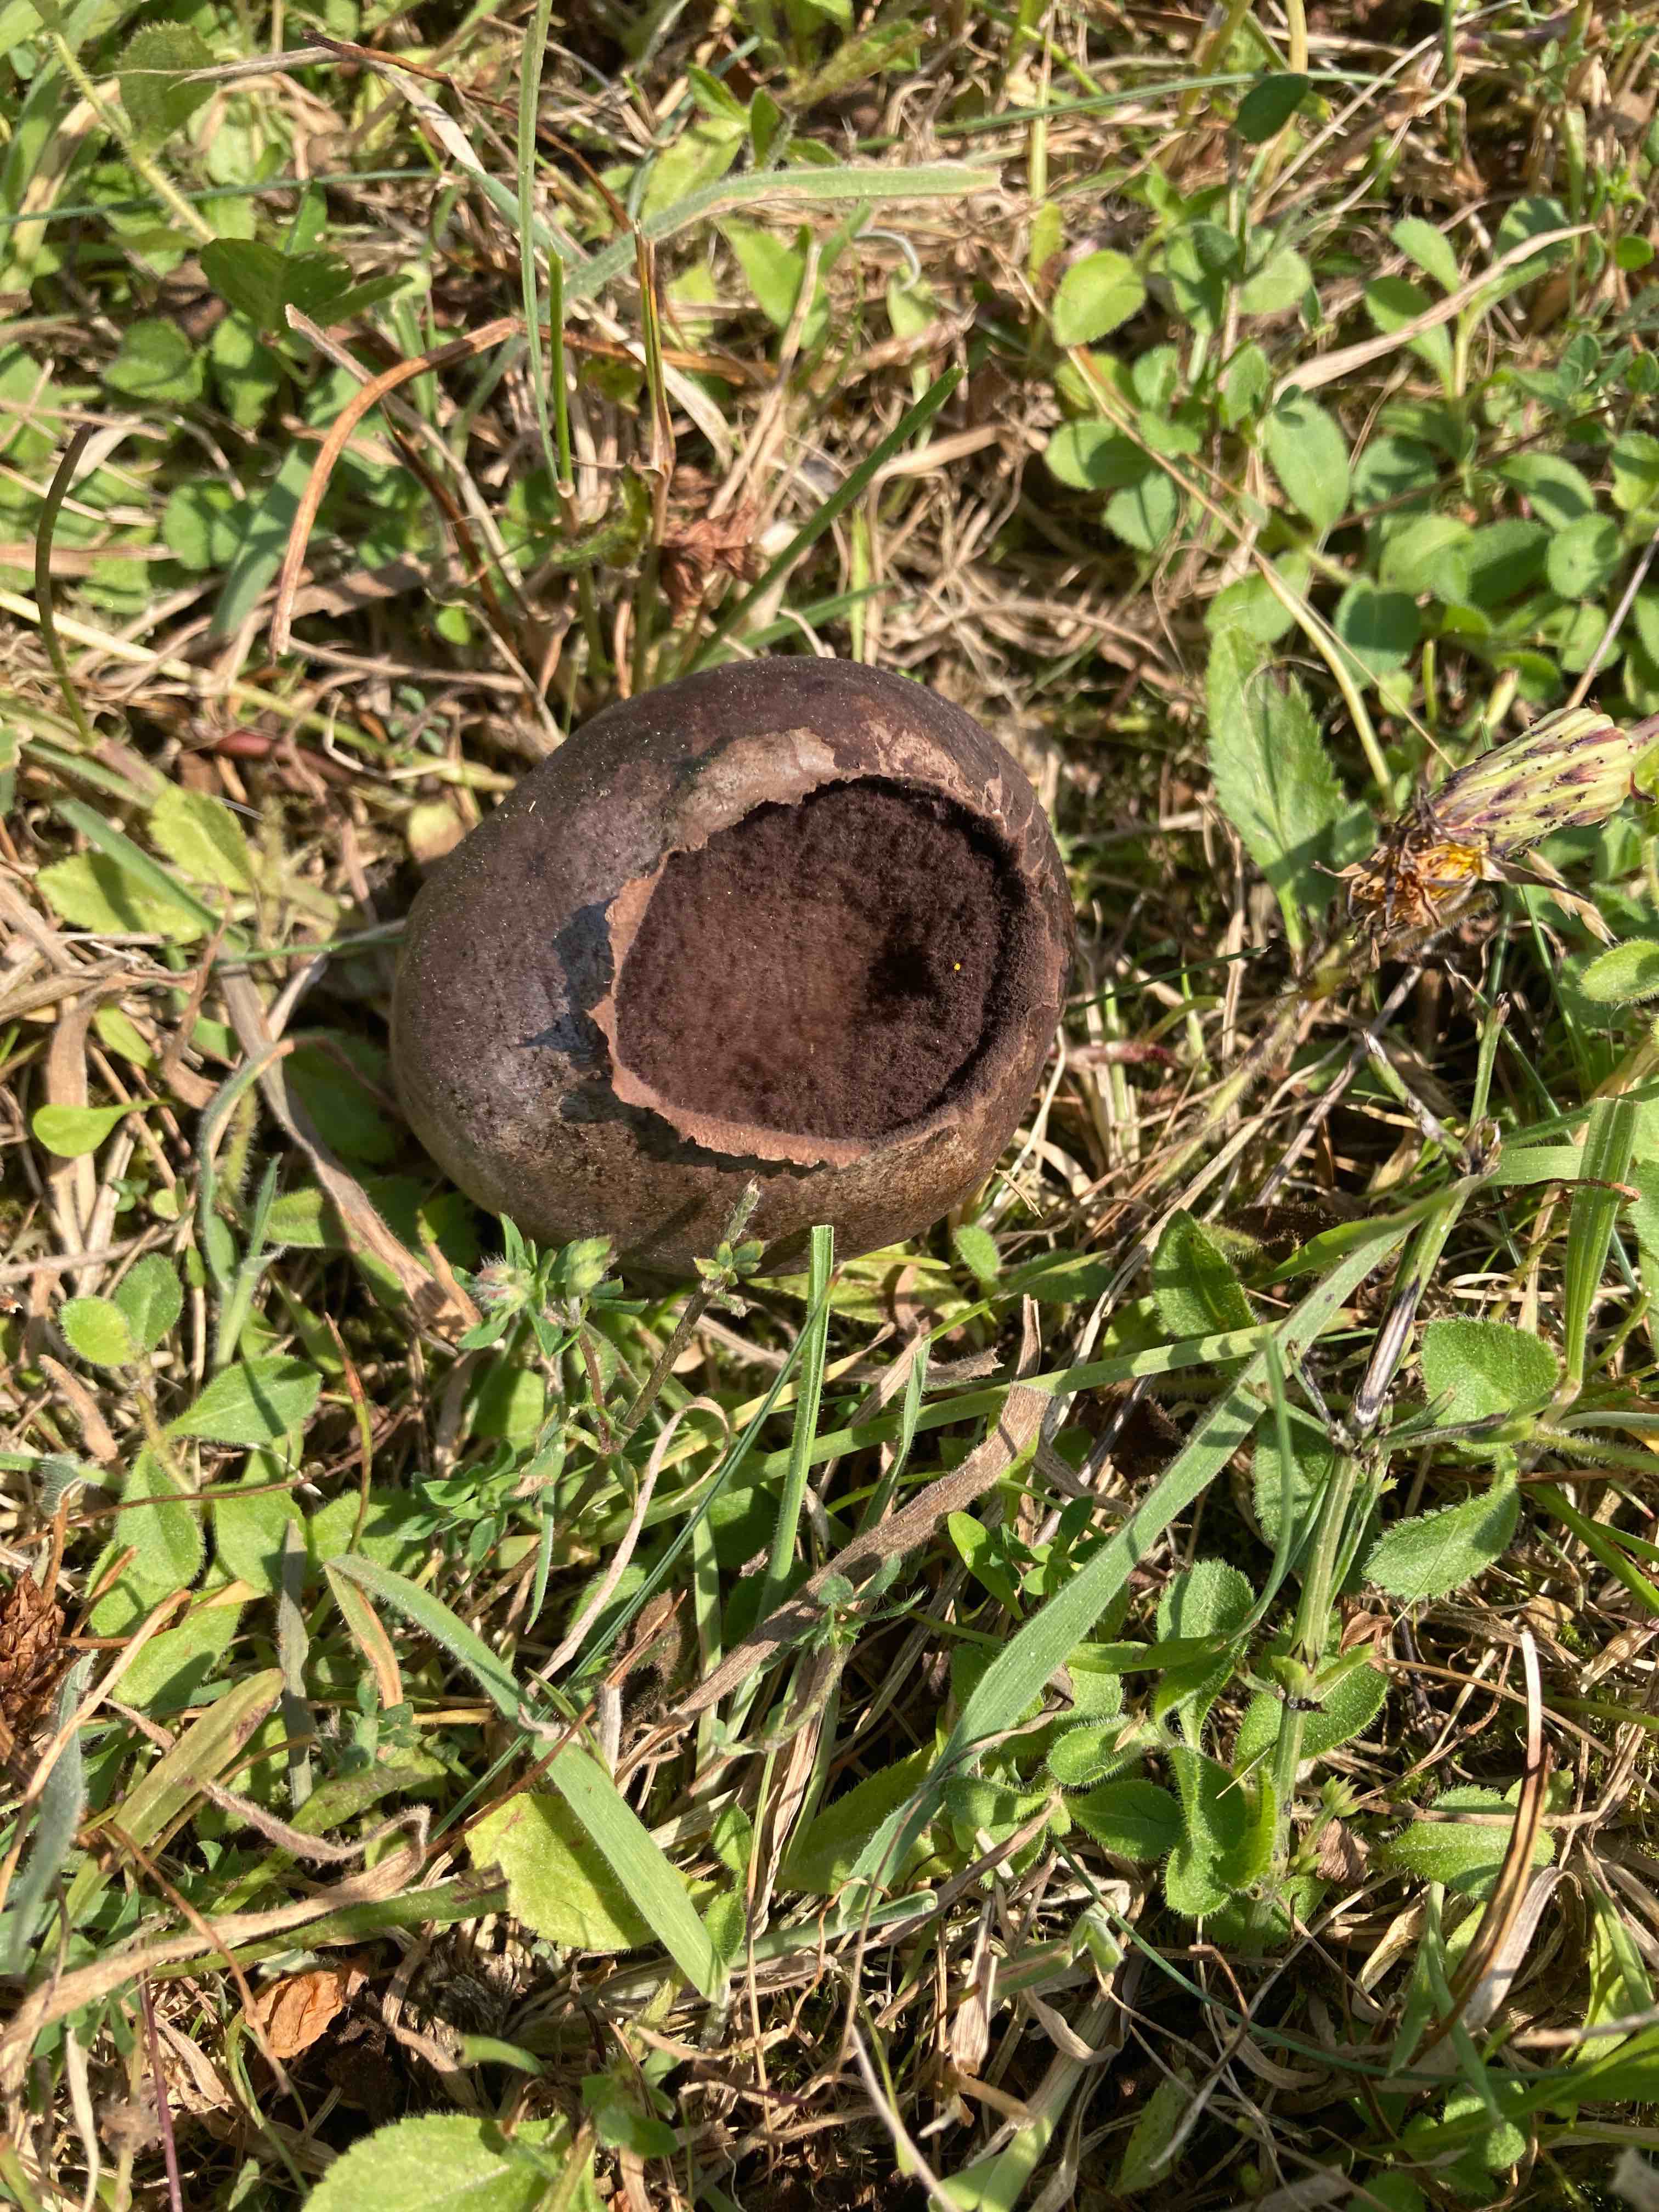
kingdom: Fungi
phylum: Basidiomycota
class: Agaricomycetes
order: Agaricales
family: Lycoperdaceae
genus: Bovista
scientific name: Bovista nigrescens
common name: sortagtig bovist
